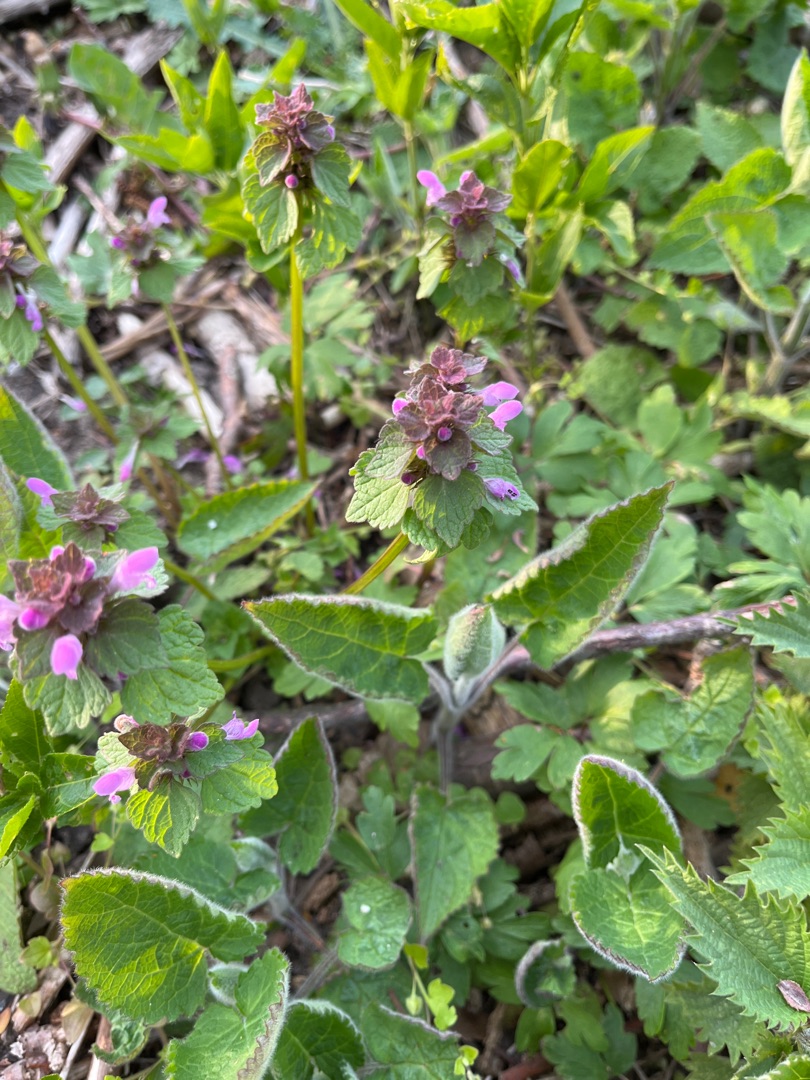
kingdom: Plantae
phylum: Tracheophyta
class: Magnoliopsida
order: Lamiales
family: Lamiaceae
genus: Lamium
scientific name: Lamium purpureum
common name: Rød tvetand
